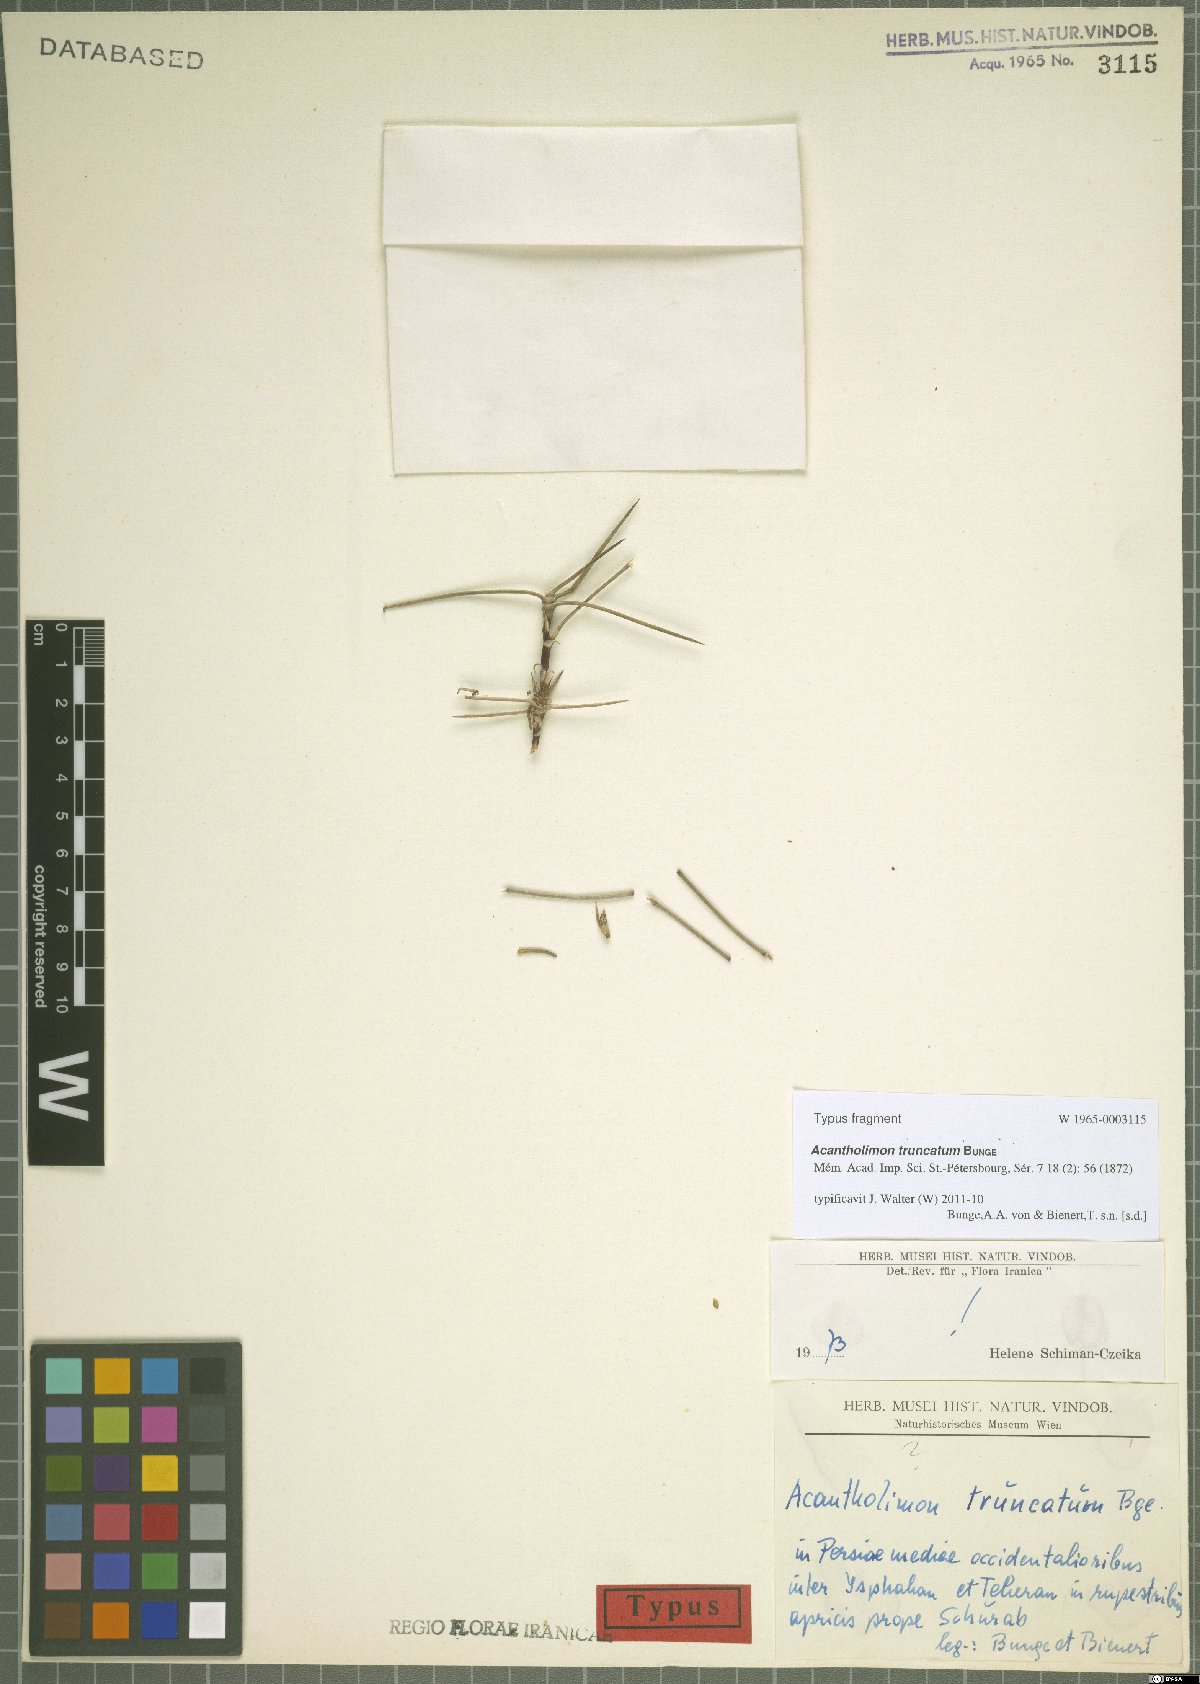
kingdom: Plantae
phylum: Tracheophyta
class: Magnoliopsida
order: Caryophyllales
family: Plumbaginaceae
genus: Acantholimon
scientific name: Acantholimon truncatum
